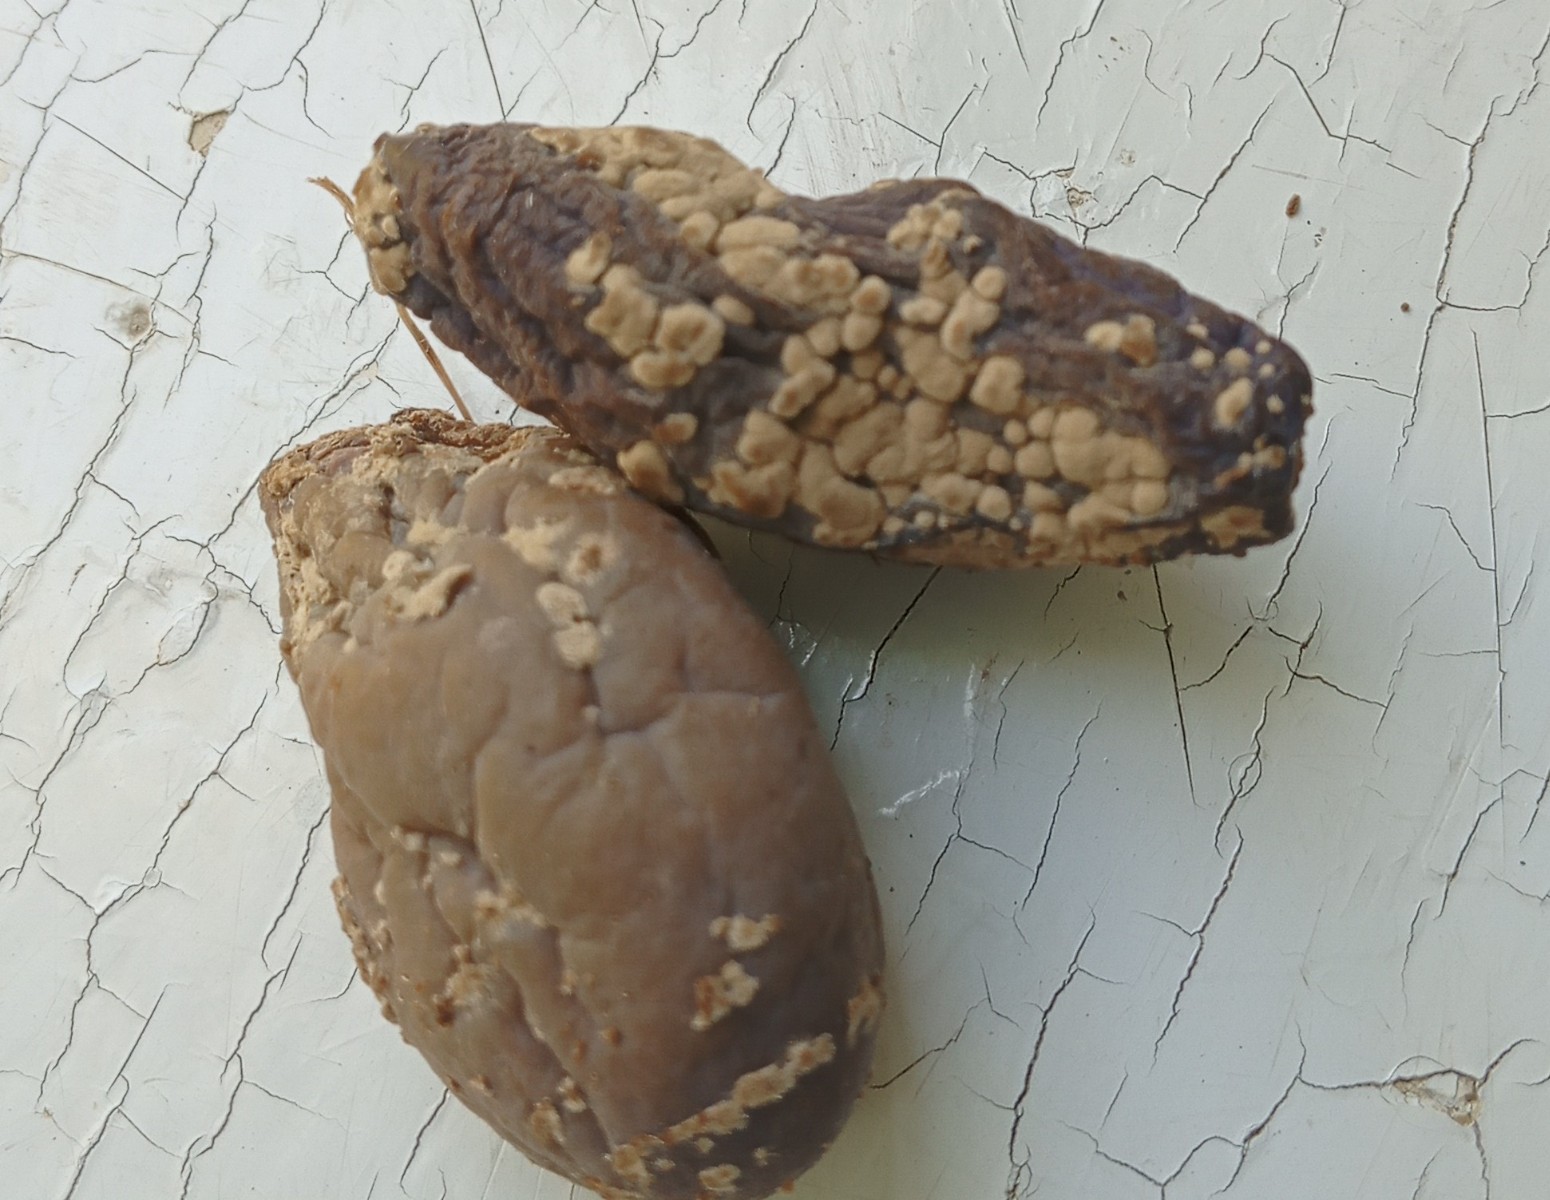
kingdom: Fungi
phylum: Ascomycota
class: Leotiomycetes
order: Helotiales
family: Sclerotiniaceae
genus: Monilinia
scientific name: Monilinia laxa
